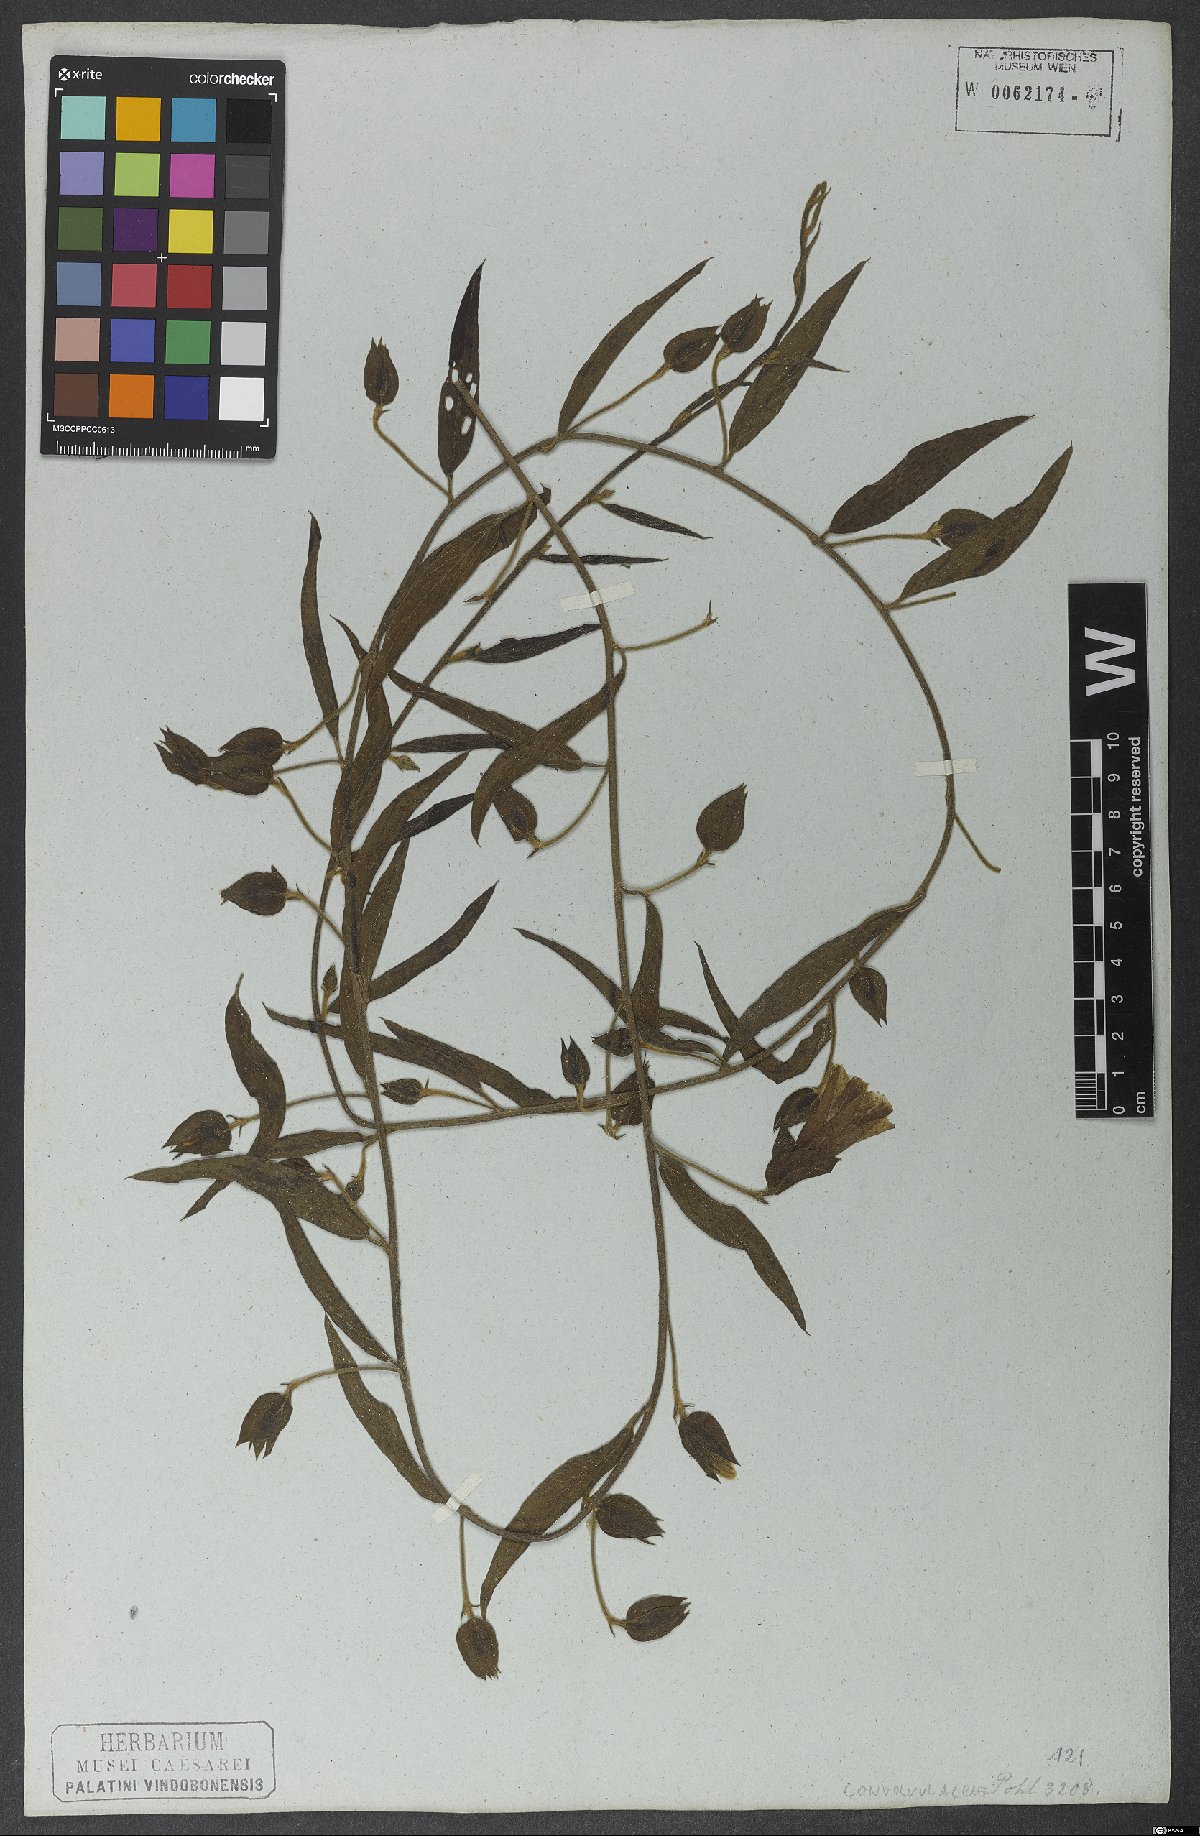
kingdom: Plantae
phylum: Tracheophyta
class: Magnoliopsida
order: Solanales
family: Convolvulaceae
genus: Aniseia
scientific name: Aniseia martinicensis
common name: Kulayadambu
